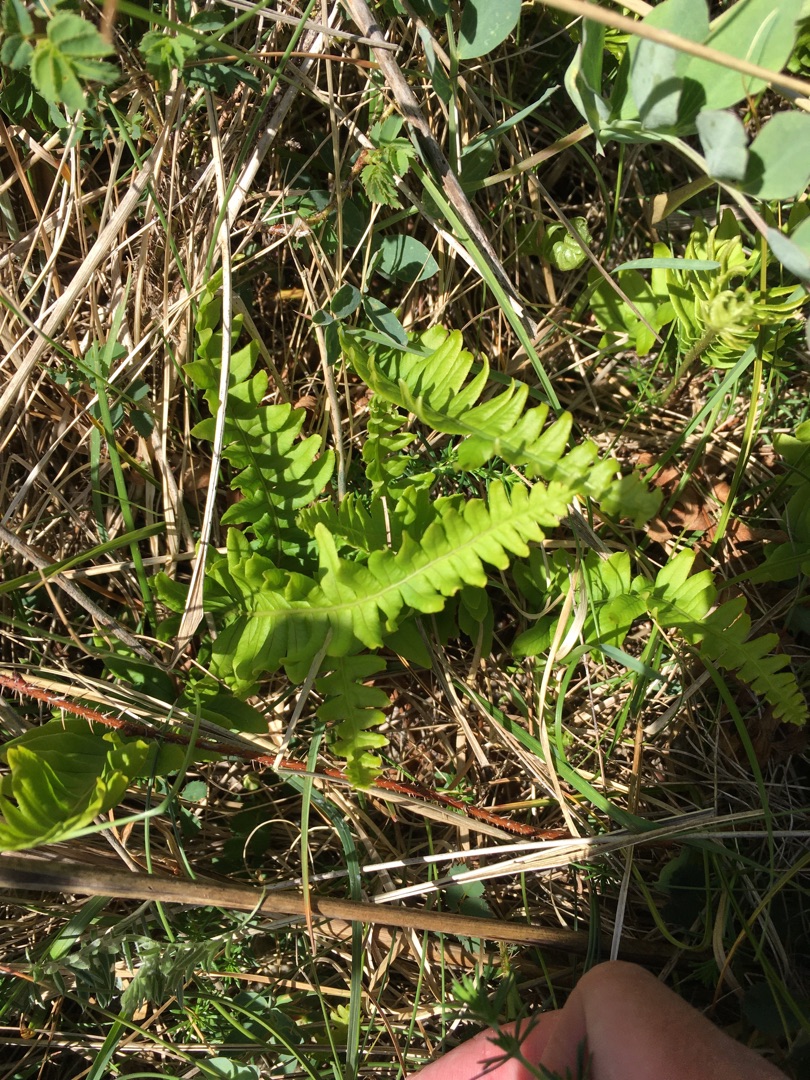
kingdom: Plantae
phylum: Tracheophyta
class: Polypodiopsida
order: Polypodiales
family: Polypodiaceae
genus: Polypodium
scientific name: Polypodium vulgare
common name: Almindelig engelsød
